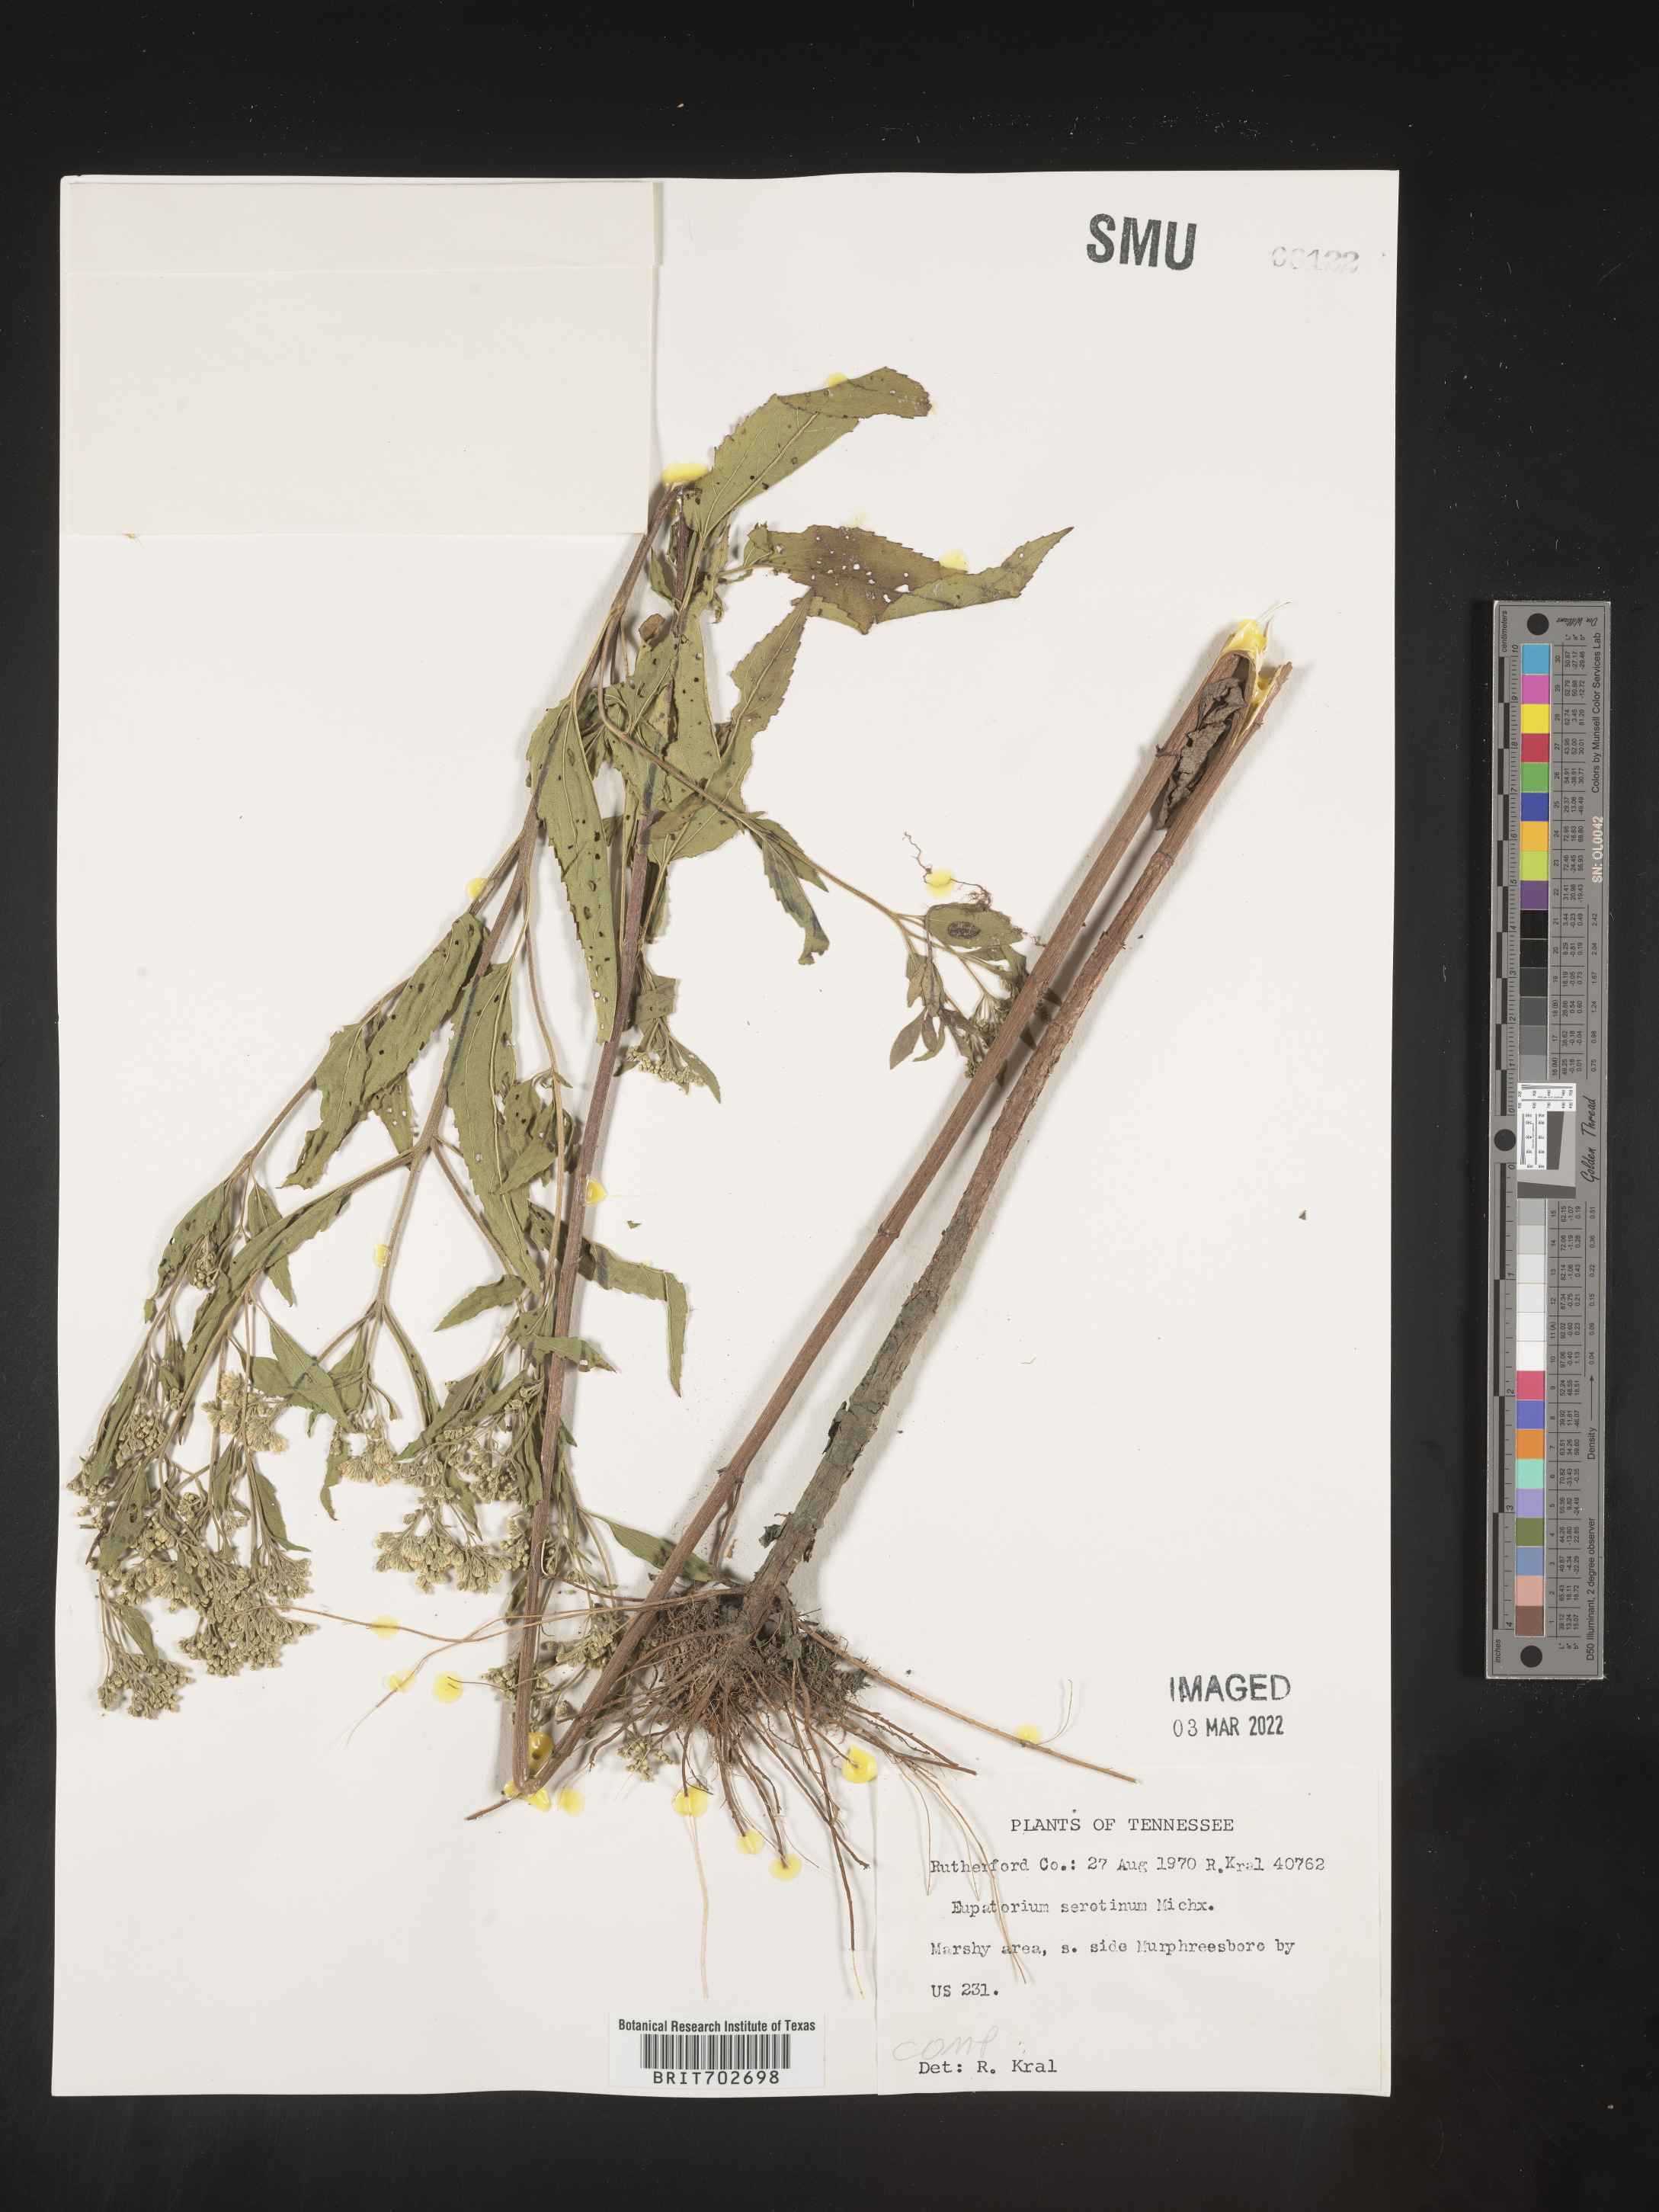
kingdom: Plantae
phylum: Tracheophyta
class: Magnoliopsida
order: Asterales
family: Asteraceae
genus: Eupatorium
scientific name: Eupatorium serotinum
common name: Late boneset
